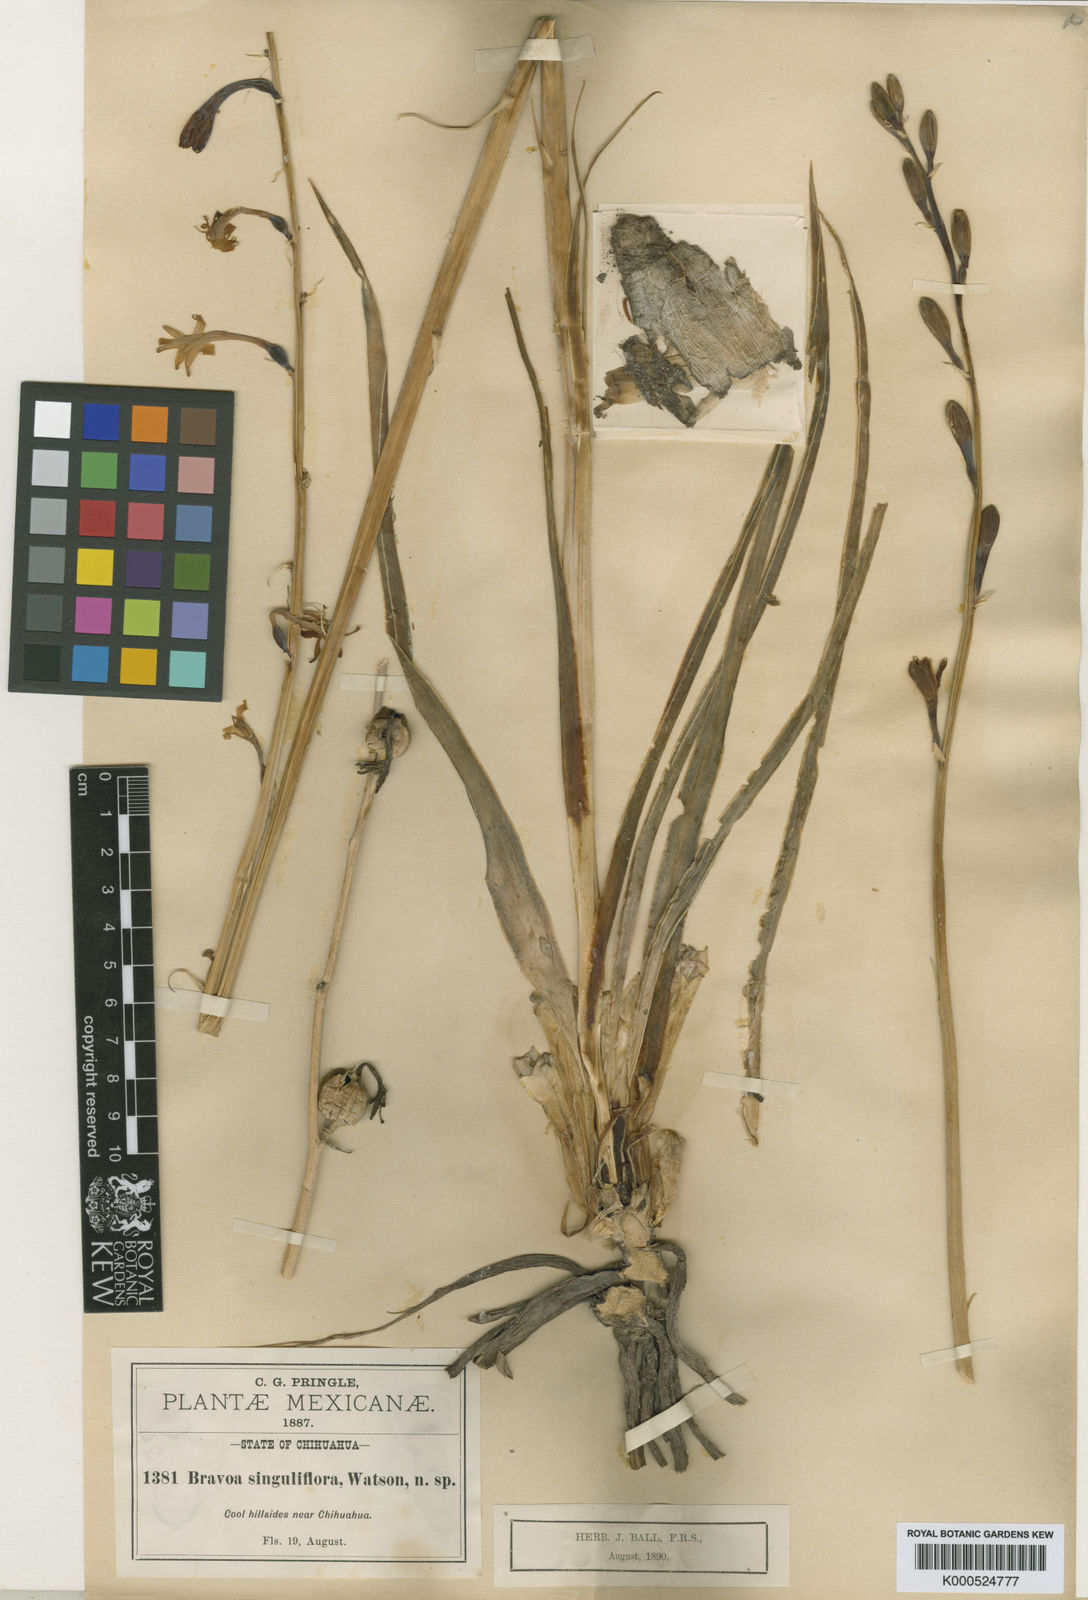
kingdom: Plantae
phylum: Tracheophyta
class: Liliopsida
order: Asparagales
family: Asparagaceae
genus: Agave
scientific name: Agave singuliflora
